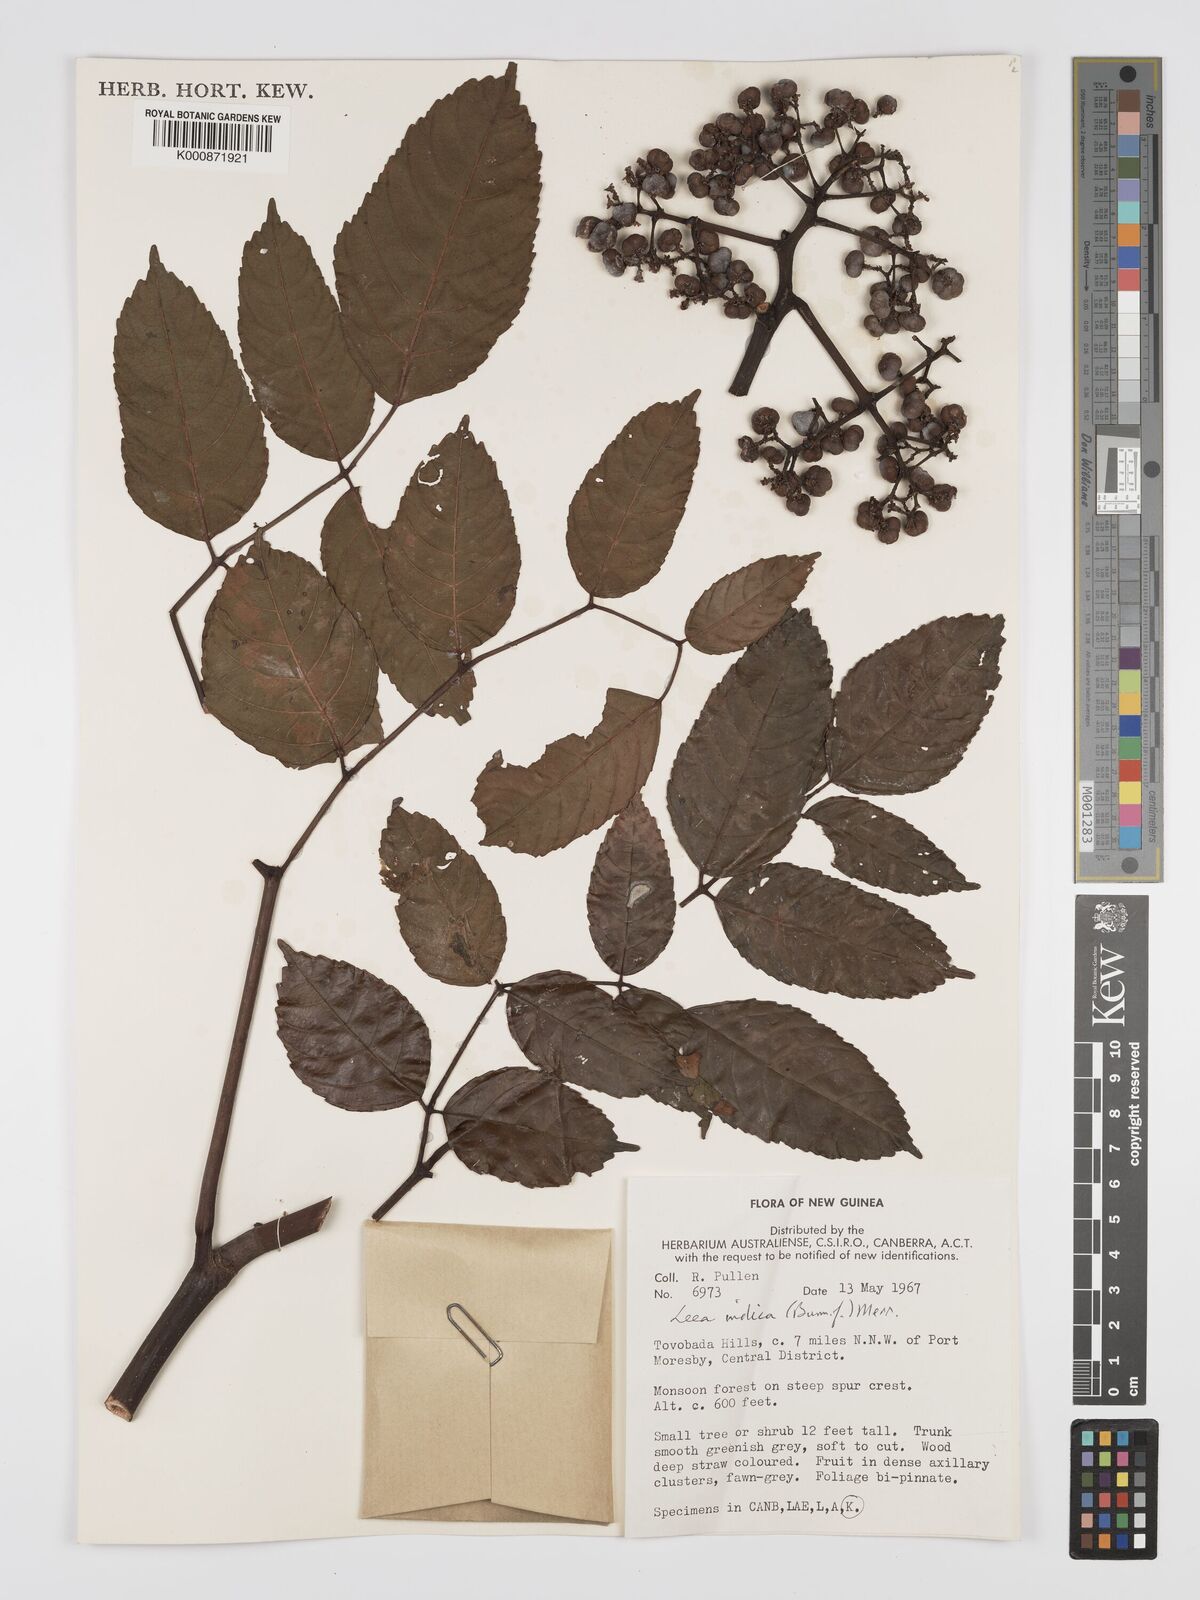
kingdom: Plantae
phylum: Tracheophyta
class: Magnoliopsida
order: Vitales
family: Vitaceae
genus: Leea
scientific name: Leea indica
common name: Bandicoot-berry
